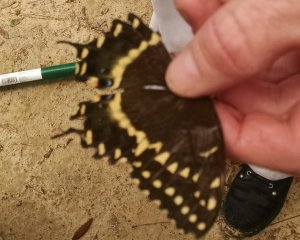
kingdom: Animalia
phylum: Arthropoda
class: Insecta
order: Lepidoptera
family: Papilionidae
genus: Pterourus
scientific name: Pterourus palamedes
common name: Palamedes Swallowtail
